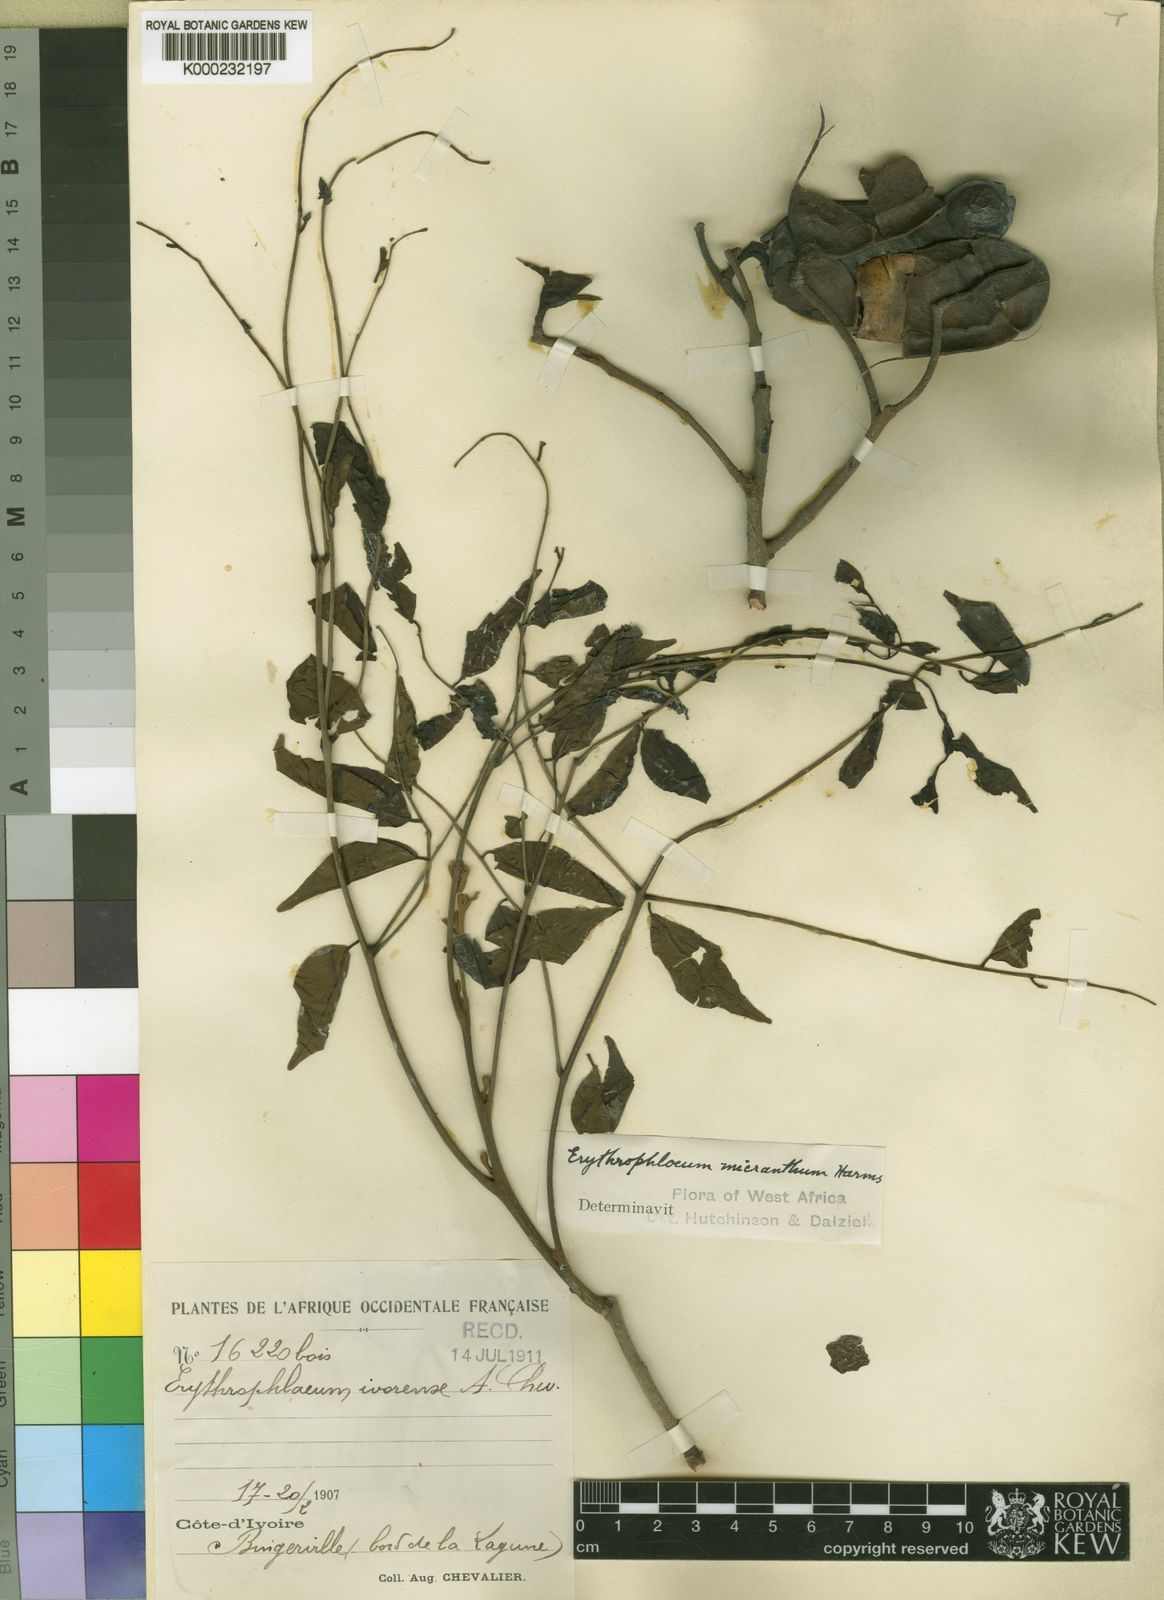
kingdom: Plantae
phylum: Tracheophyta
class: Magnoliopsida
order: Fabales
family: Fabaceae
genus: Erythrophleum
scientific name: Erythrophleum ivorense
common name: Ordealtree
